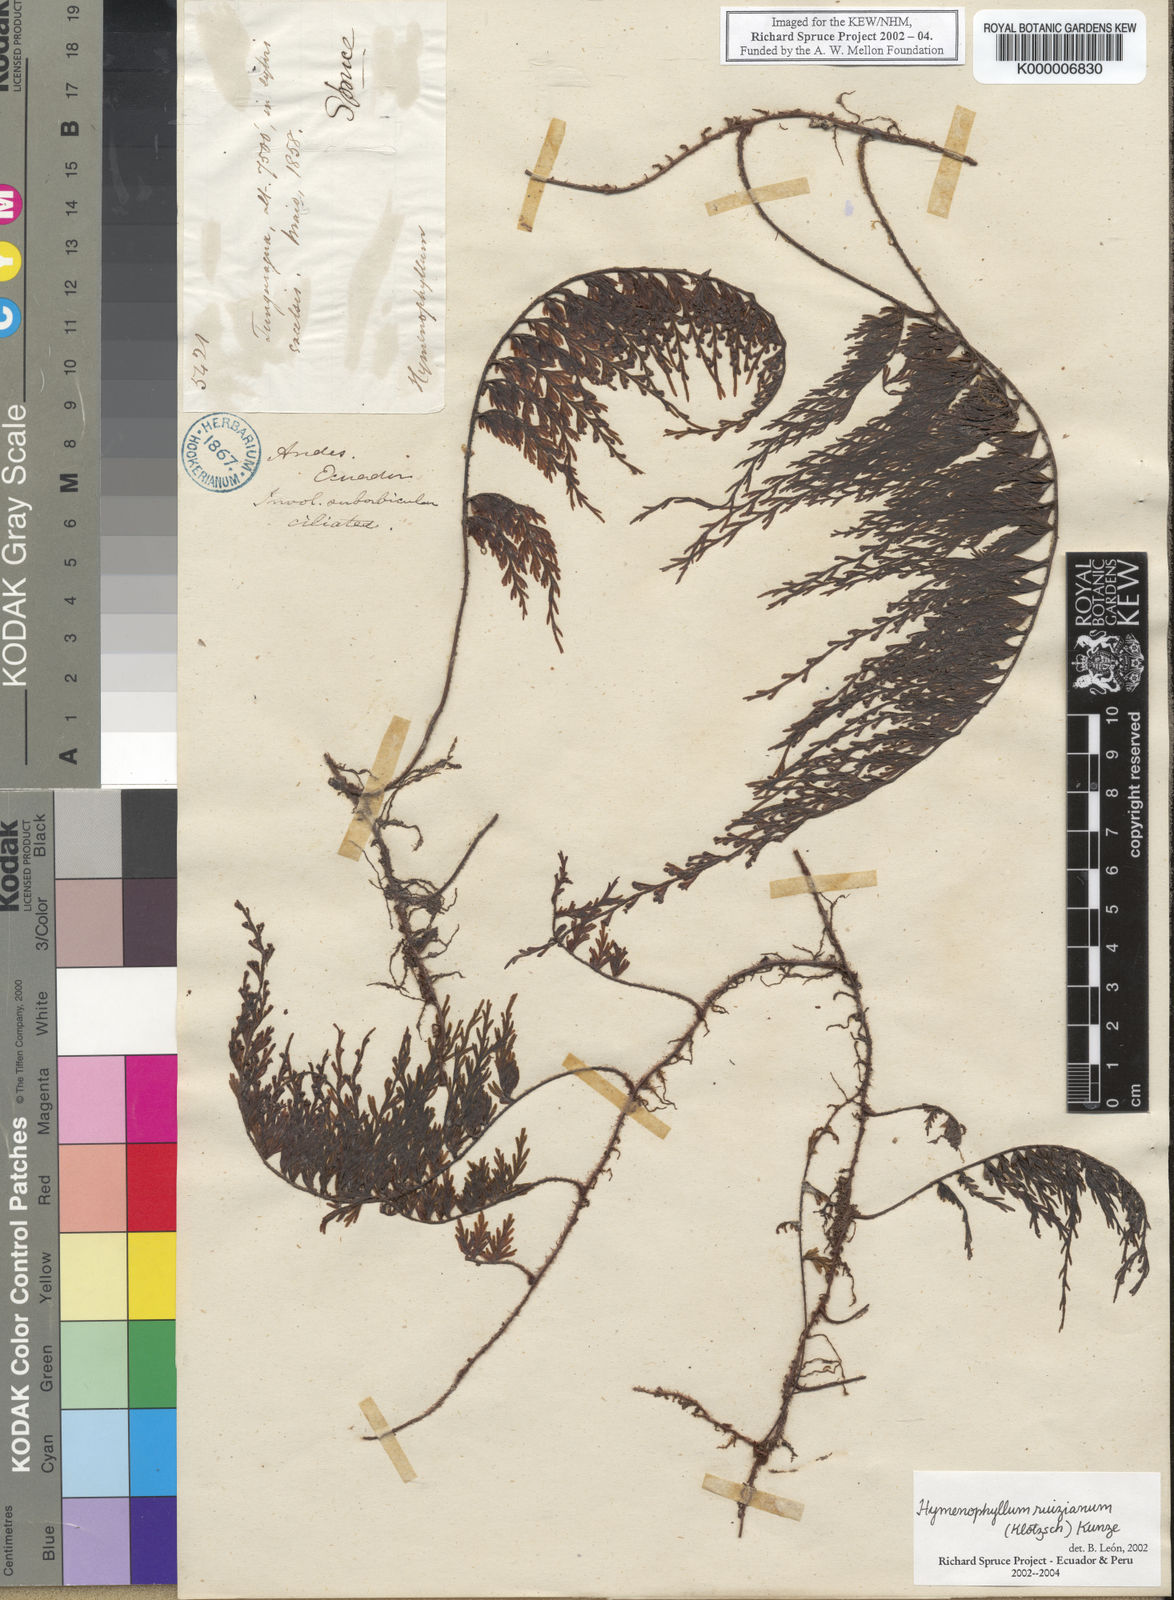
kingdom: Plantae
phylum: Tracheophyta
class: Polypodiopsida
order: Hymenophyllales
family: Hymenophyllaceae
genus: Hymenophyllum
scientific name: Hymenophyllum ruizianum
